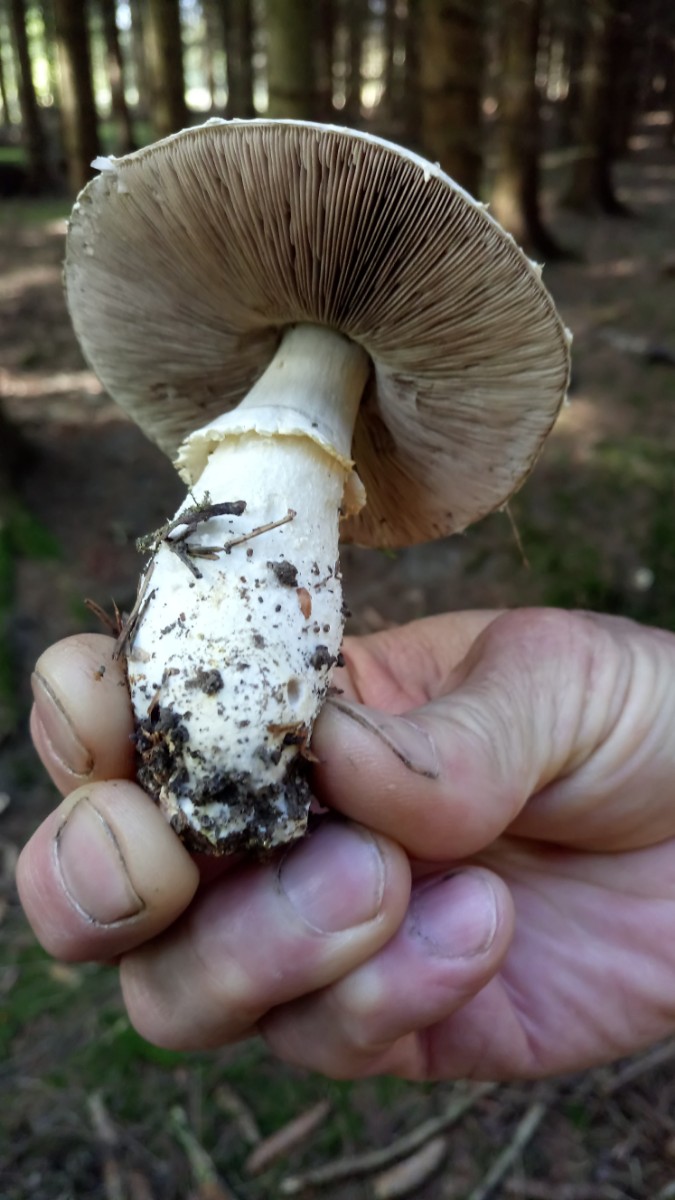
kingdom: Fungi
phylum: Basidiomycota
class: Agaricomycetes
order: Agaricales
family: Agaricaceae
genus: Agaricus
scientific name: Agaricus
